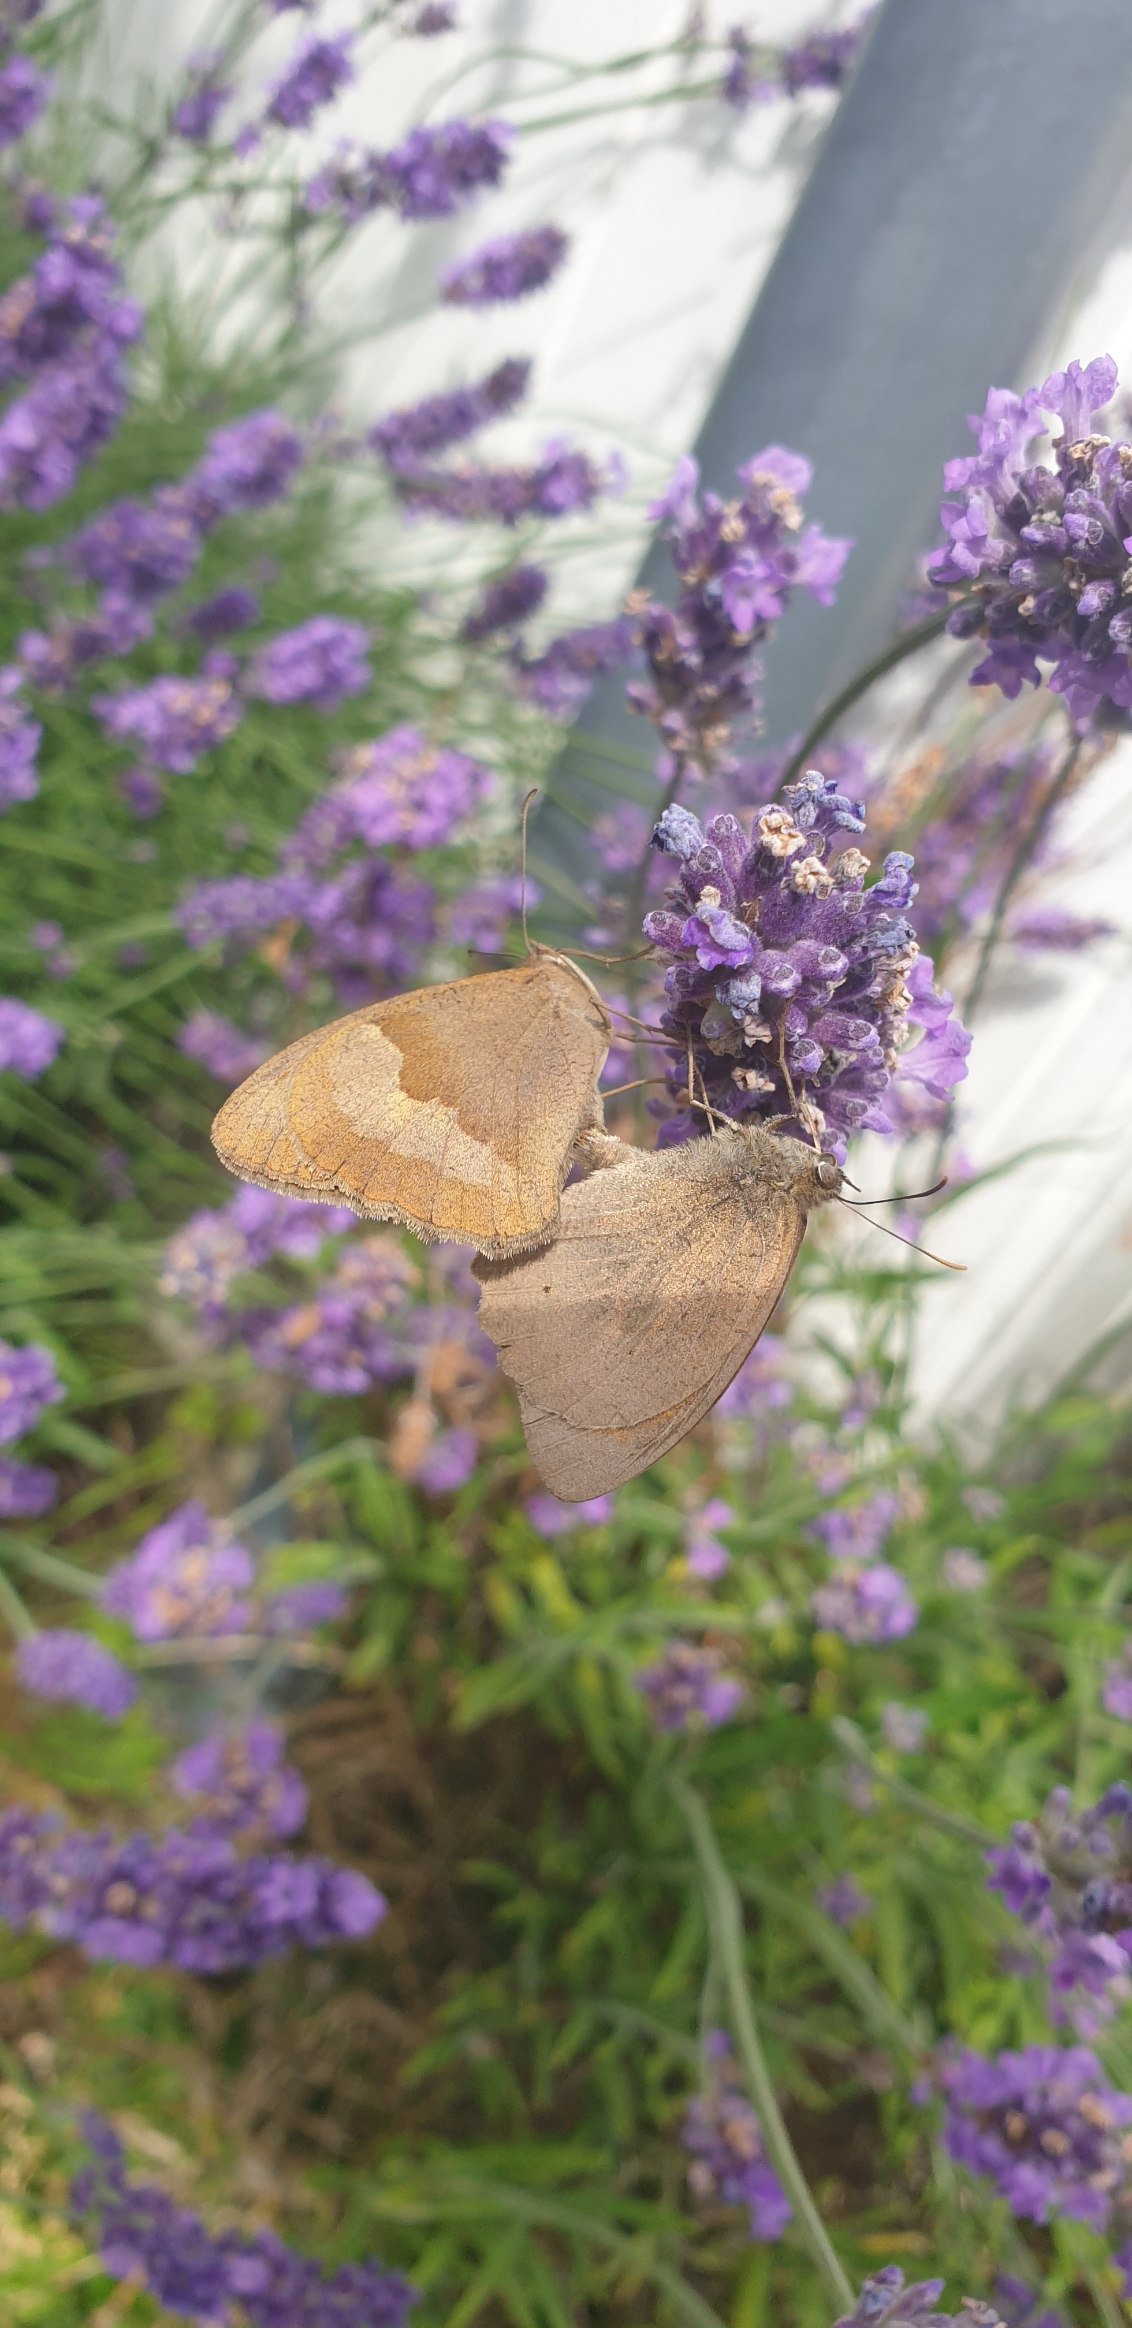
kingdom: Animalia
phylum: Arthropoda
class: Insecta
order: Lepidoptera
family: Nymphalidae
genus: Maniola
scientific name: Maniola jurtina
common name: Græsrandøje
